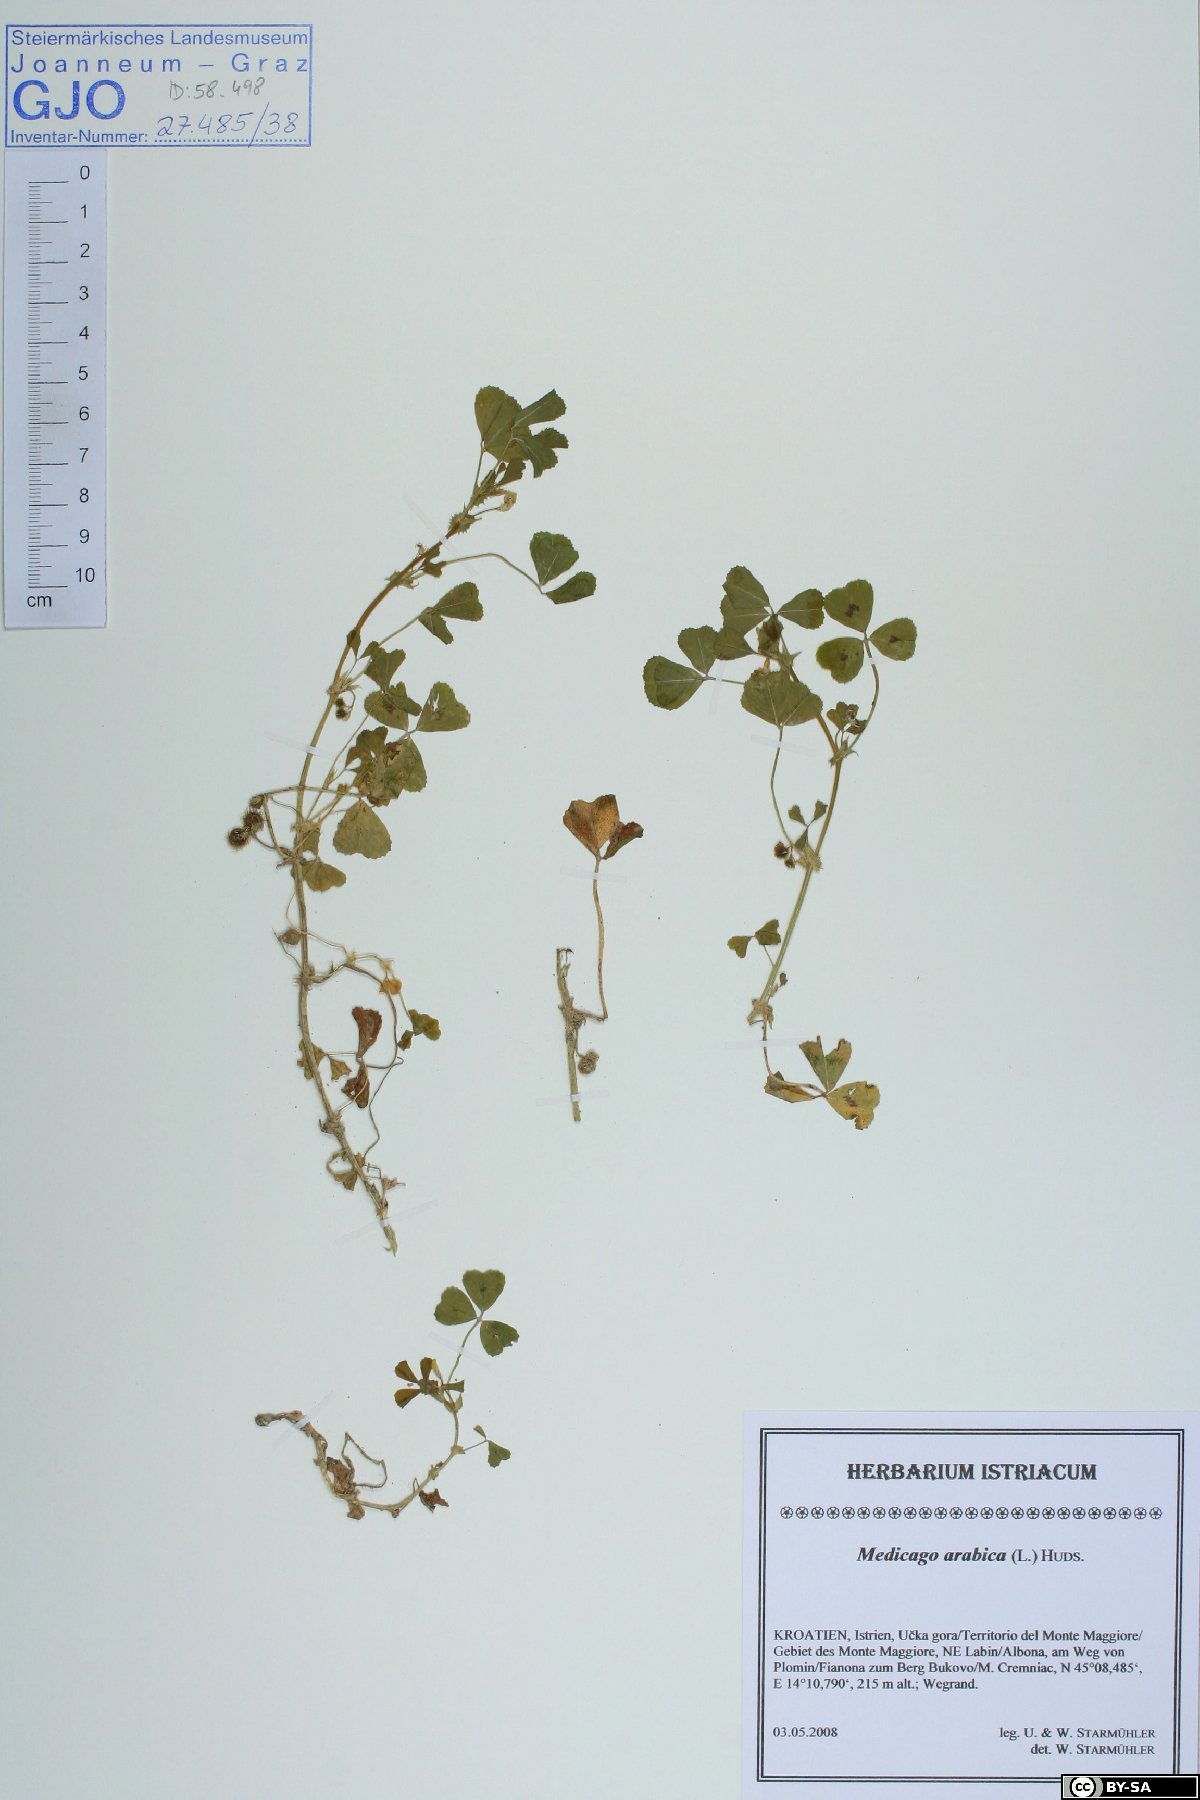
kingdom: Plantae
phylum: Tracheophyta
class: Magnoliopsida
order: Fabales
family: Fabaceae
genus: Medicago
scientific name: Medicago arabica
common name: Spotted medick
